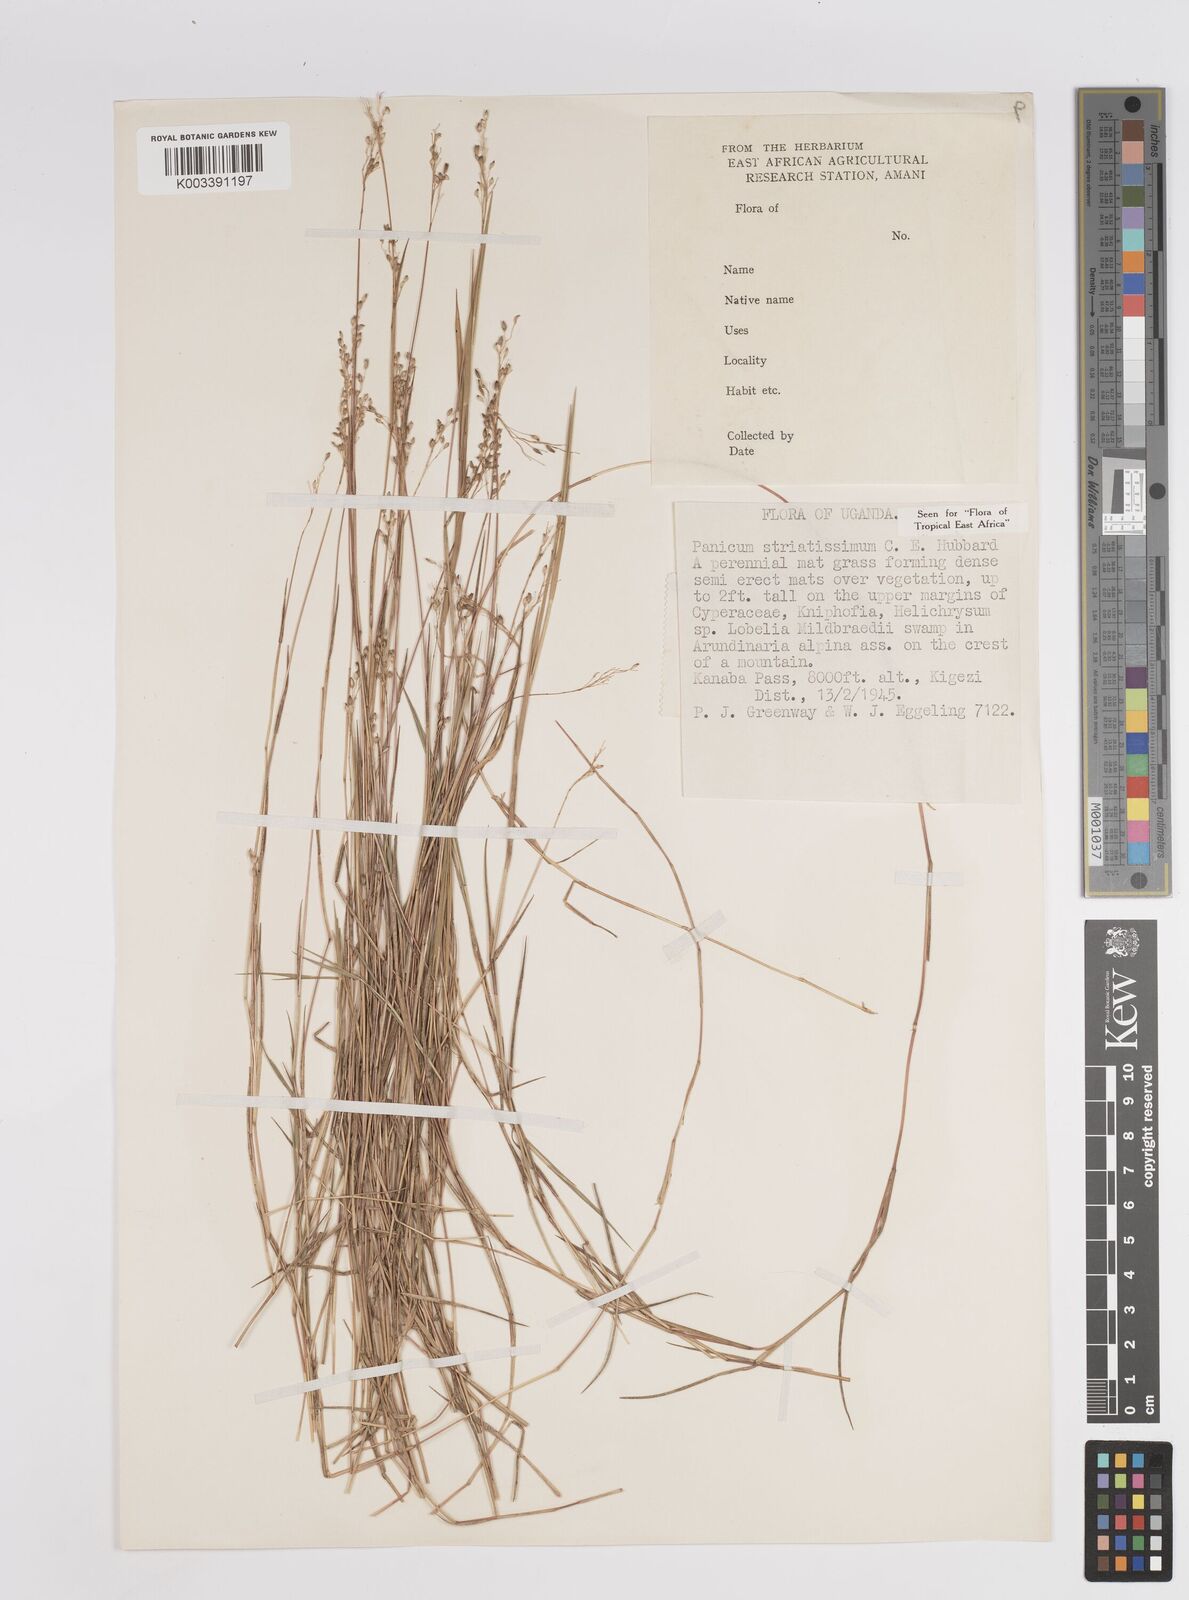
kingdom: Plantae
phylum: Tracheophyta
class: Liliopsida
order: Poales
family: Poaceae
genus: Panicum
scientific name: Panicum eickii
